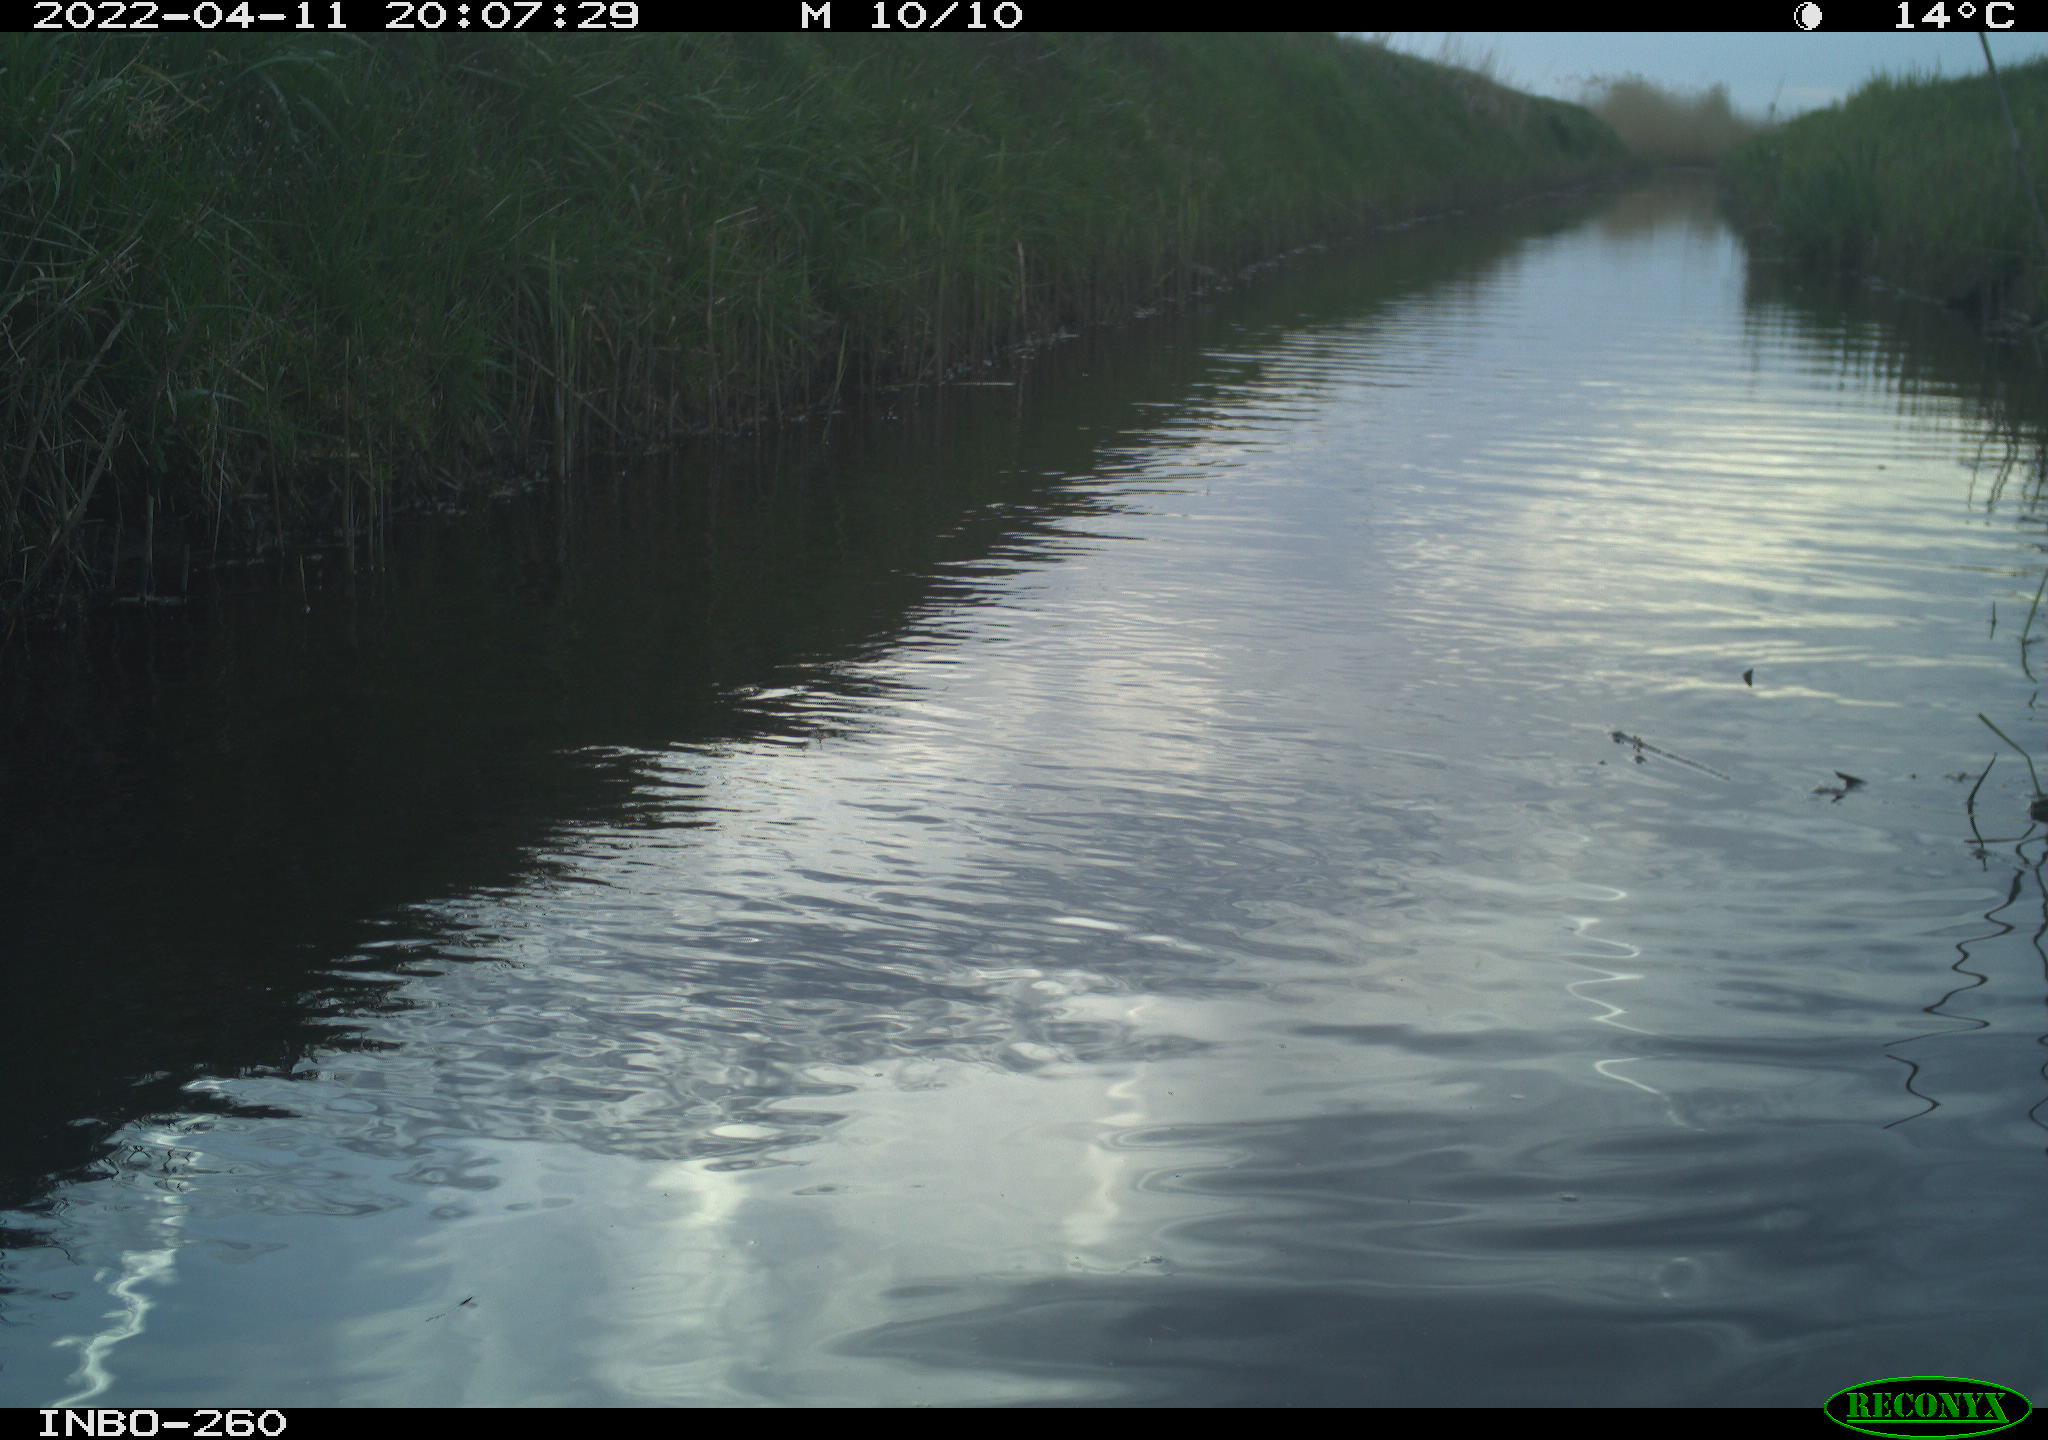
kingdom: Animalia
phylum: Chordata
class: Aves
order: Gruiformes
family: Rallidae
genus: Fulica
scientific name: Fulica atra
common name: Eurasian coot
